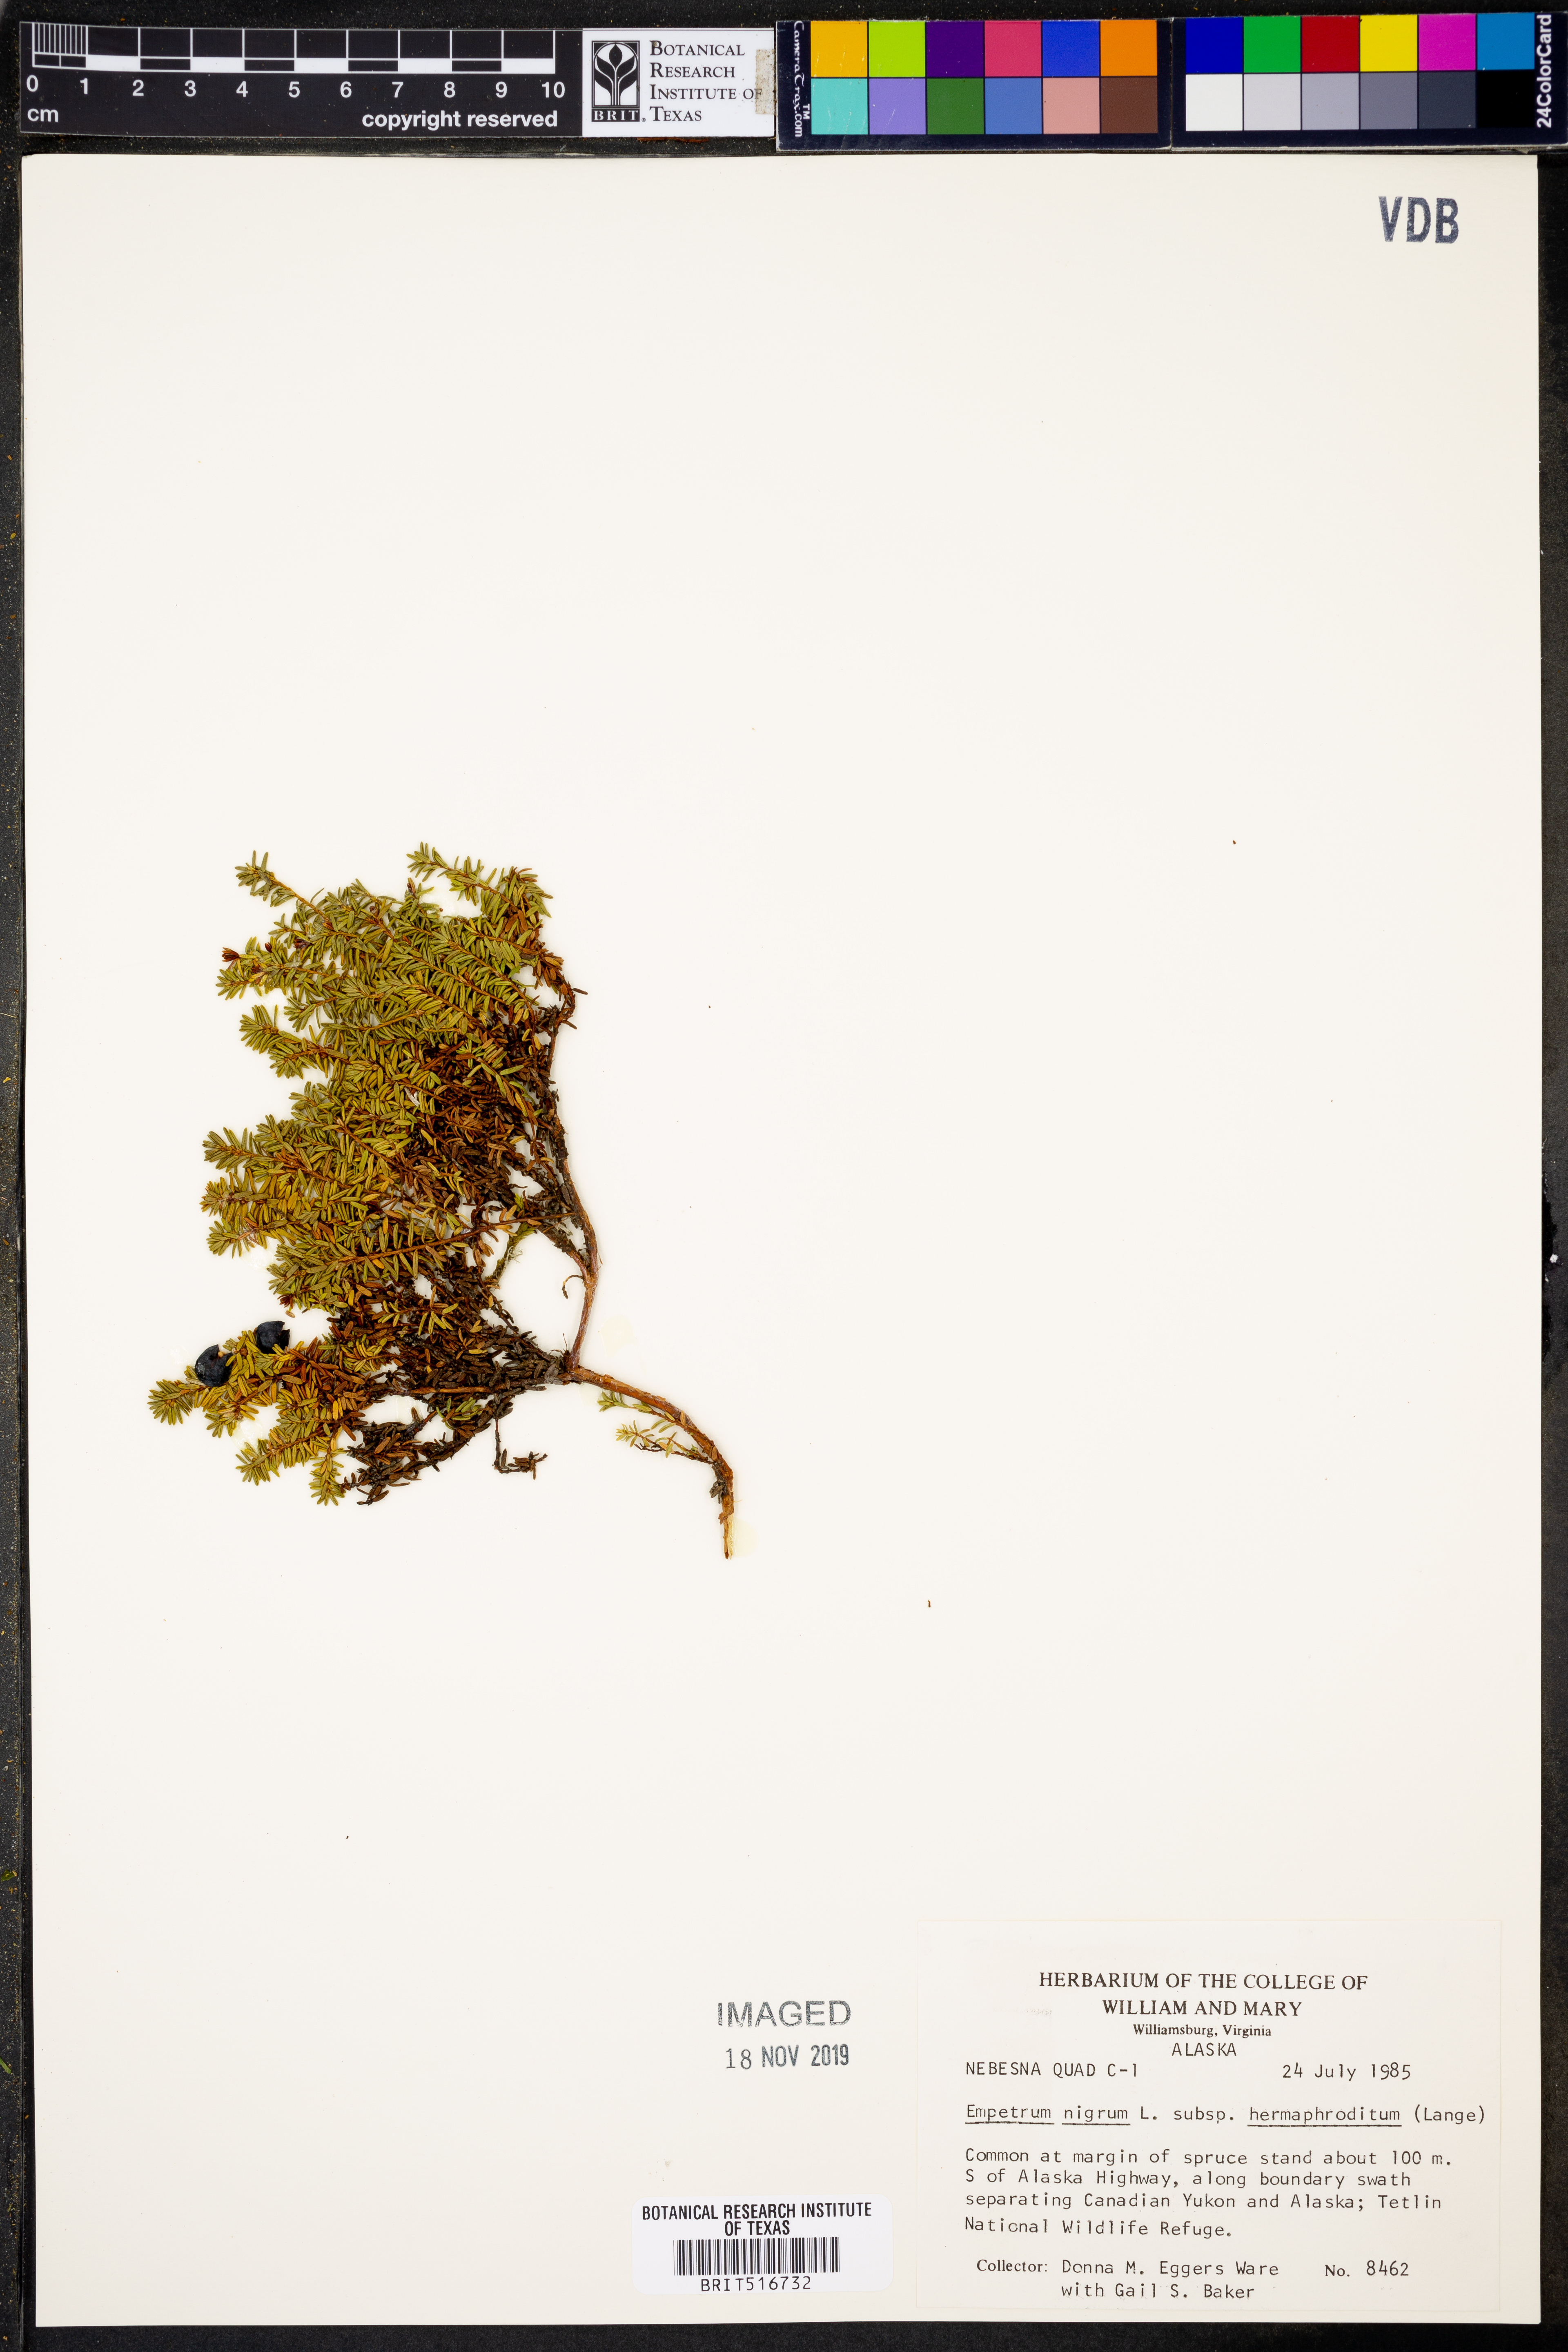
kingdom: Plantae
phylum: Tracheophyta
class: Magnoliopsida
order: Ericales
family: Ericaceae
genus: Empetrum
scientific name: Empetrum hermaphroditum
